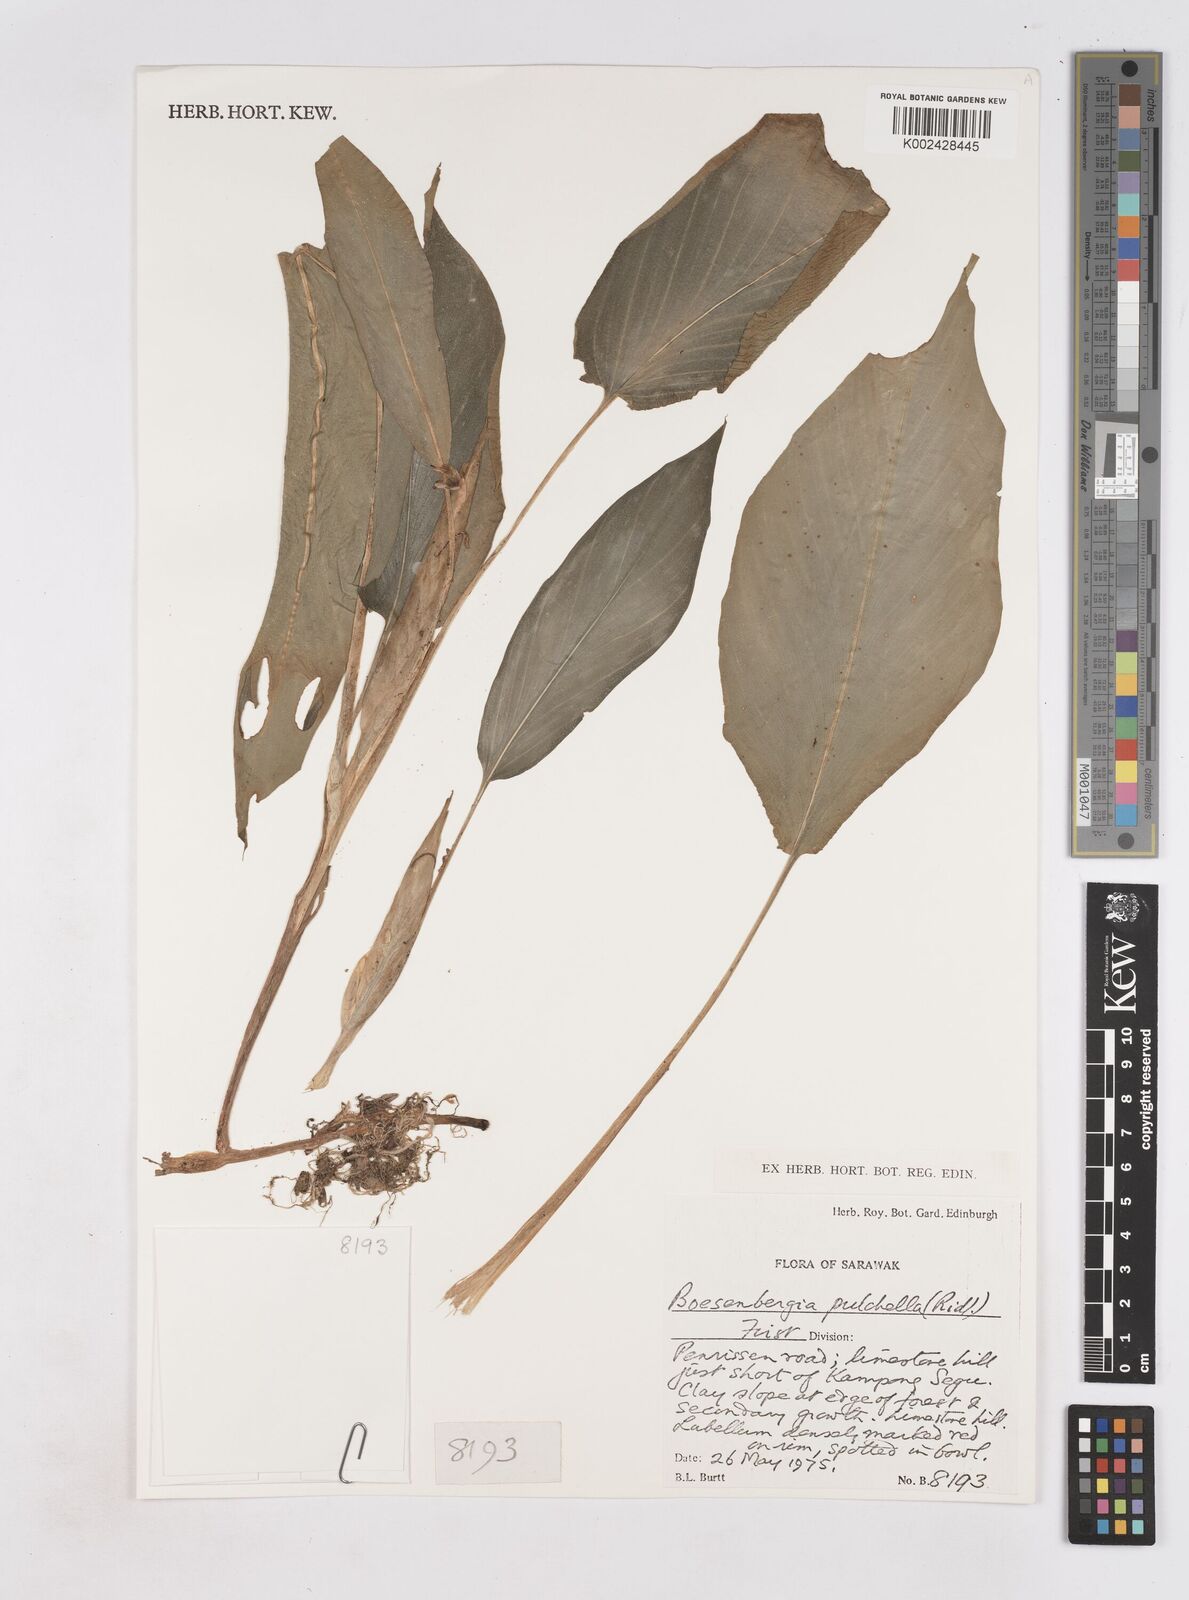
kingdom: Plantae
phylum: Tracheophyta
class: Liliopsida
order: Zingiberales
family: Zingiberaceae
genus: Boesenbergia
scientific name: Boesenbergia pulchella
